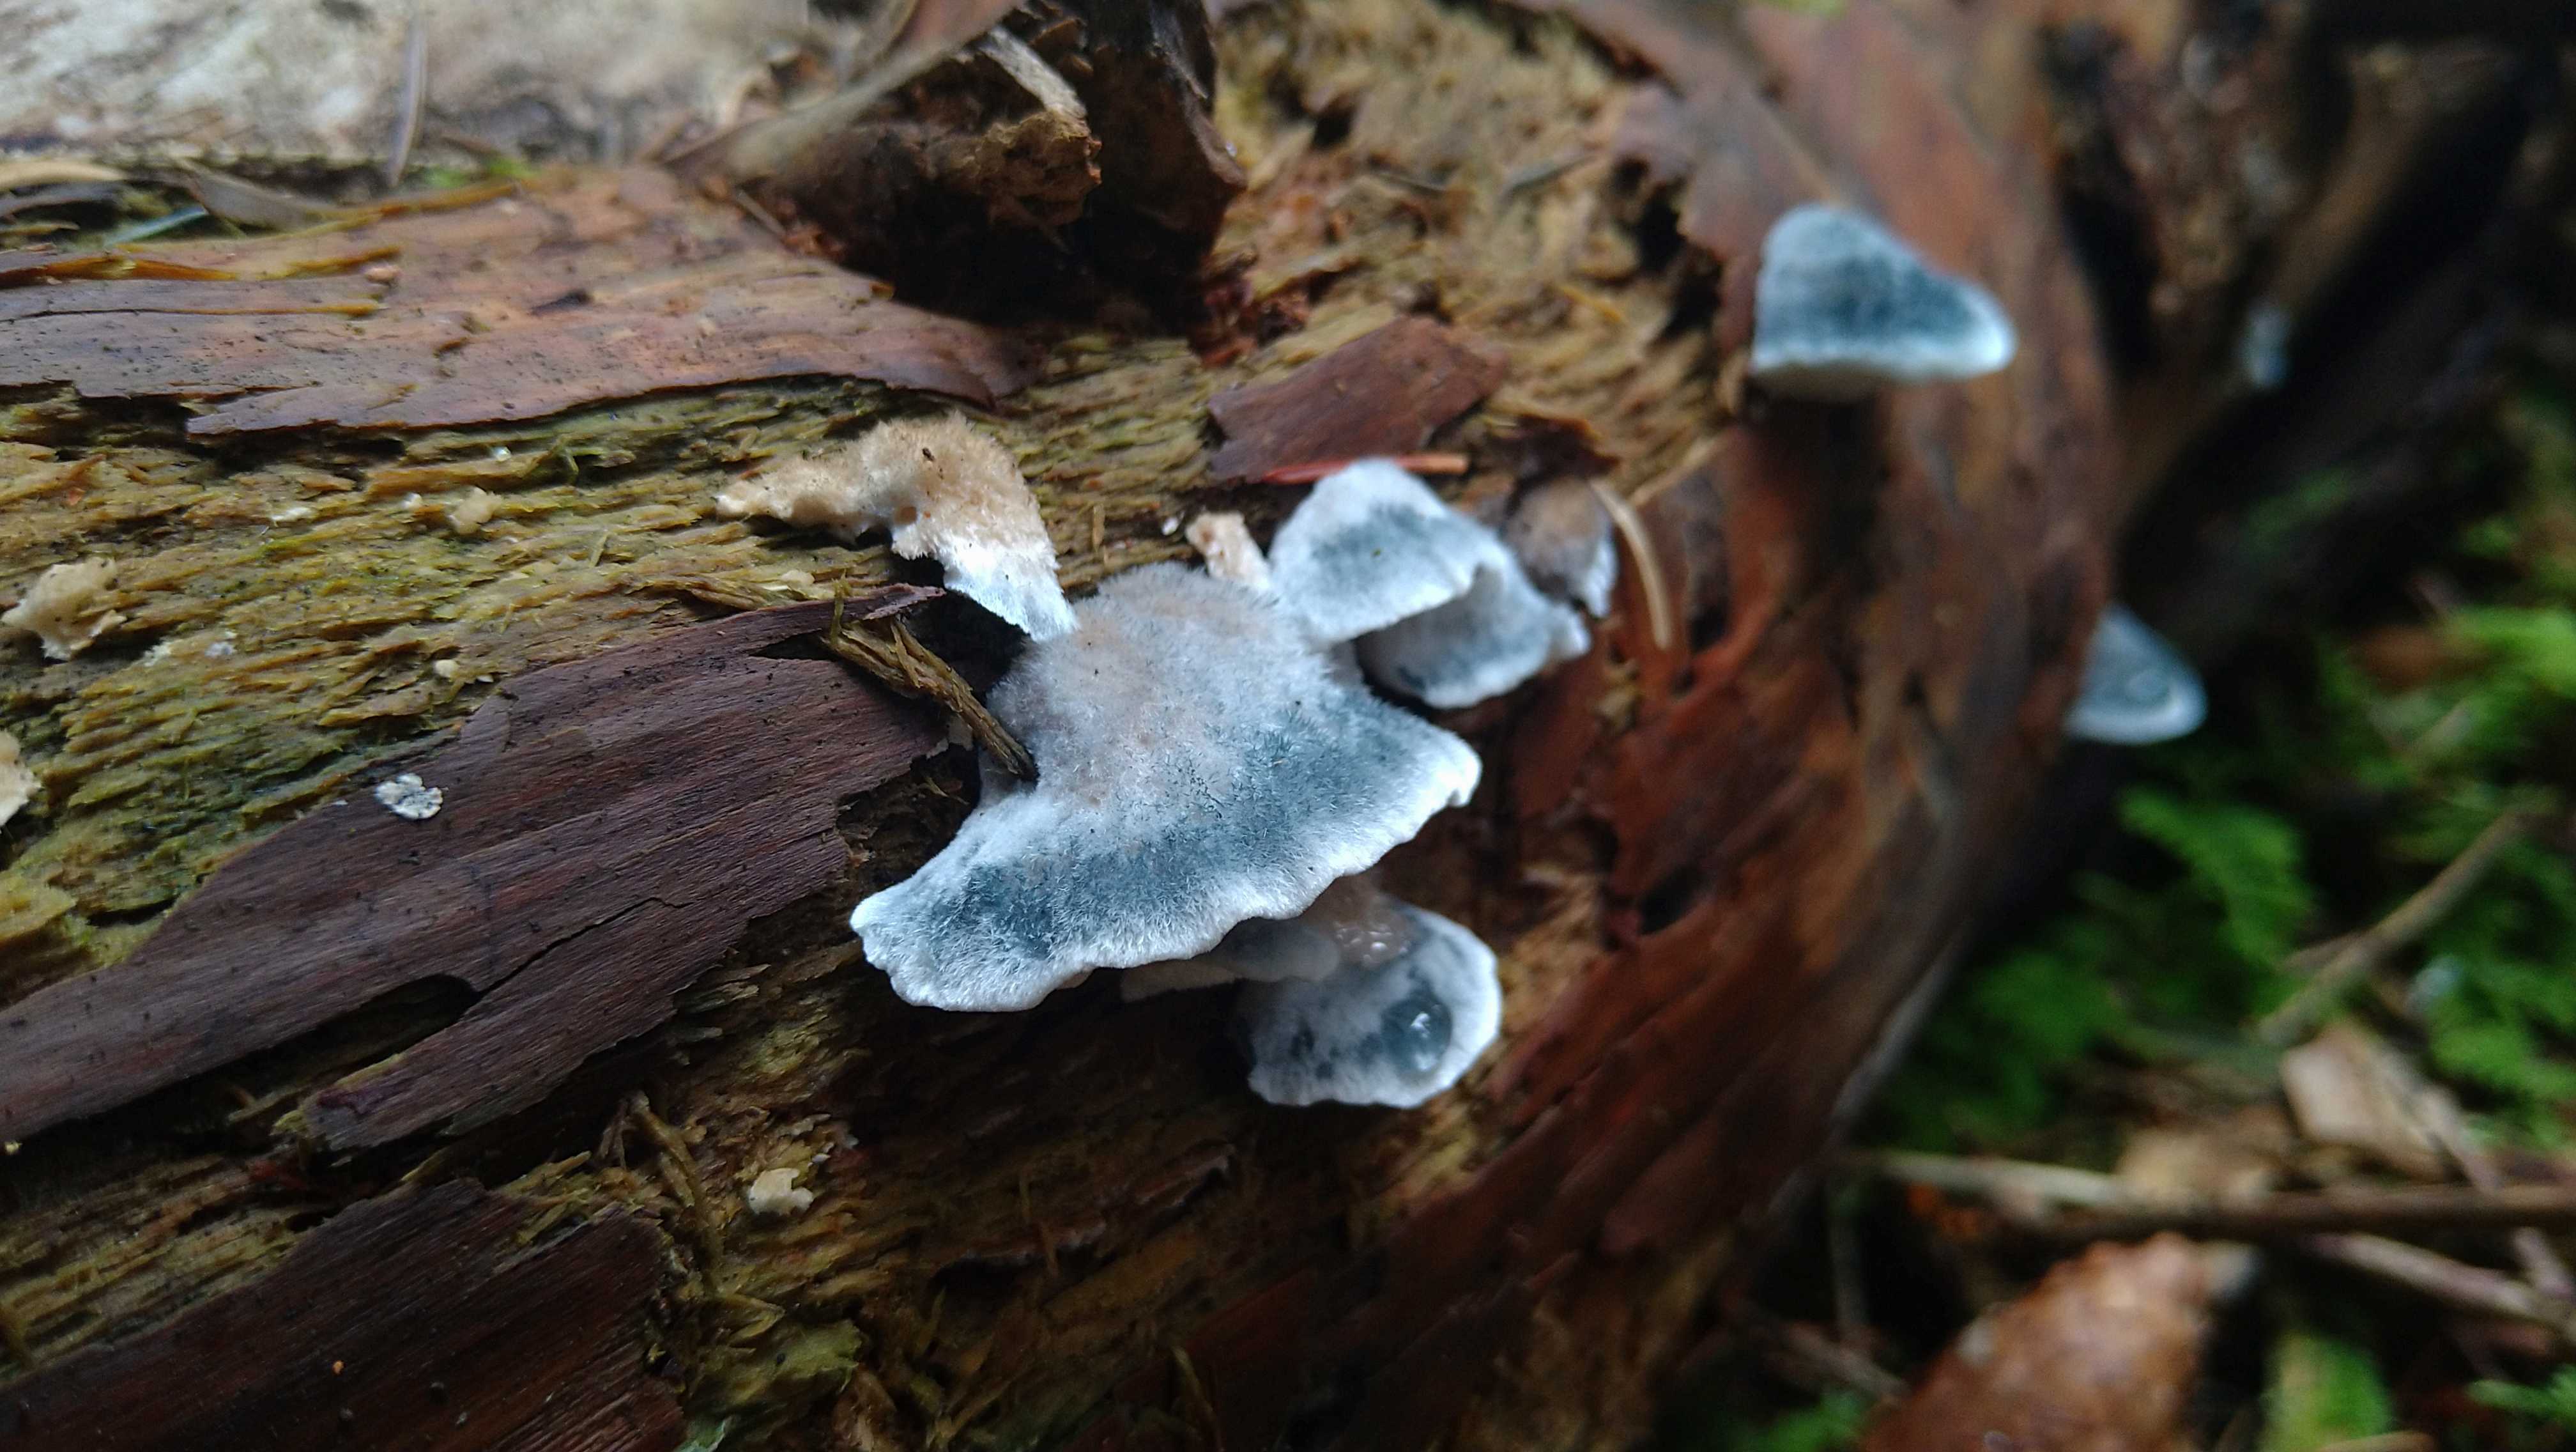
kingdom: Fungi
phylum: Basidiomycota
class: Agaricomycetes
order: Polyporales
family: Polyporaceae
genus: Cyanosporus
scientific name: Cyanosporus caesius
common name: blålig kødporesvamp
